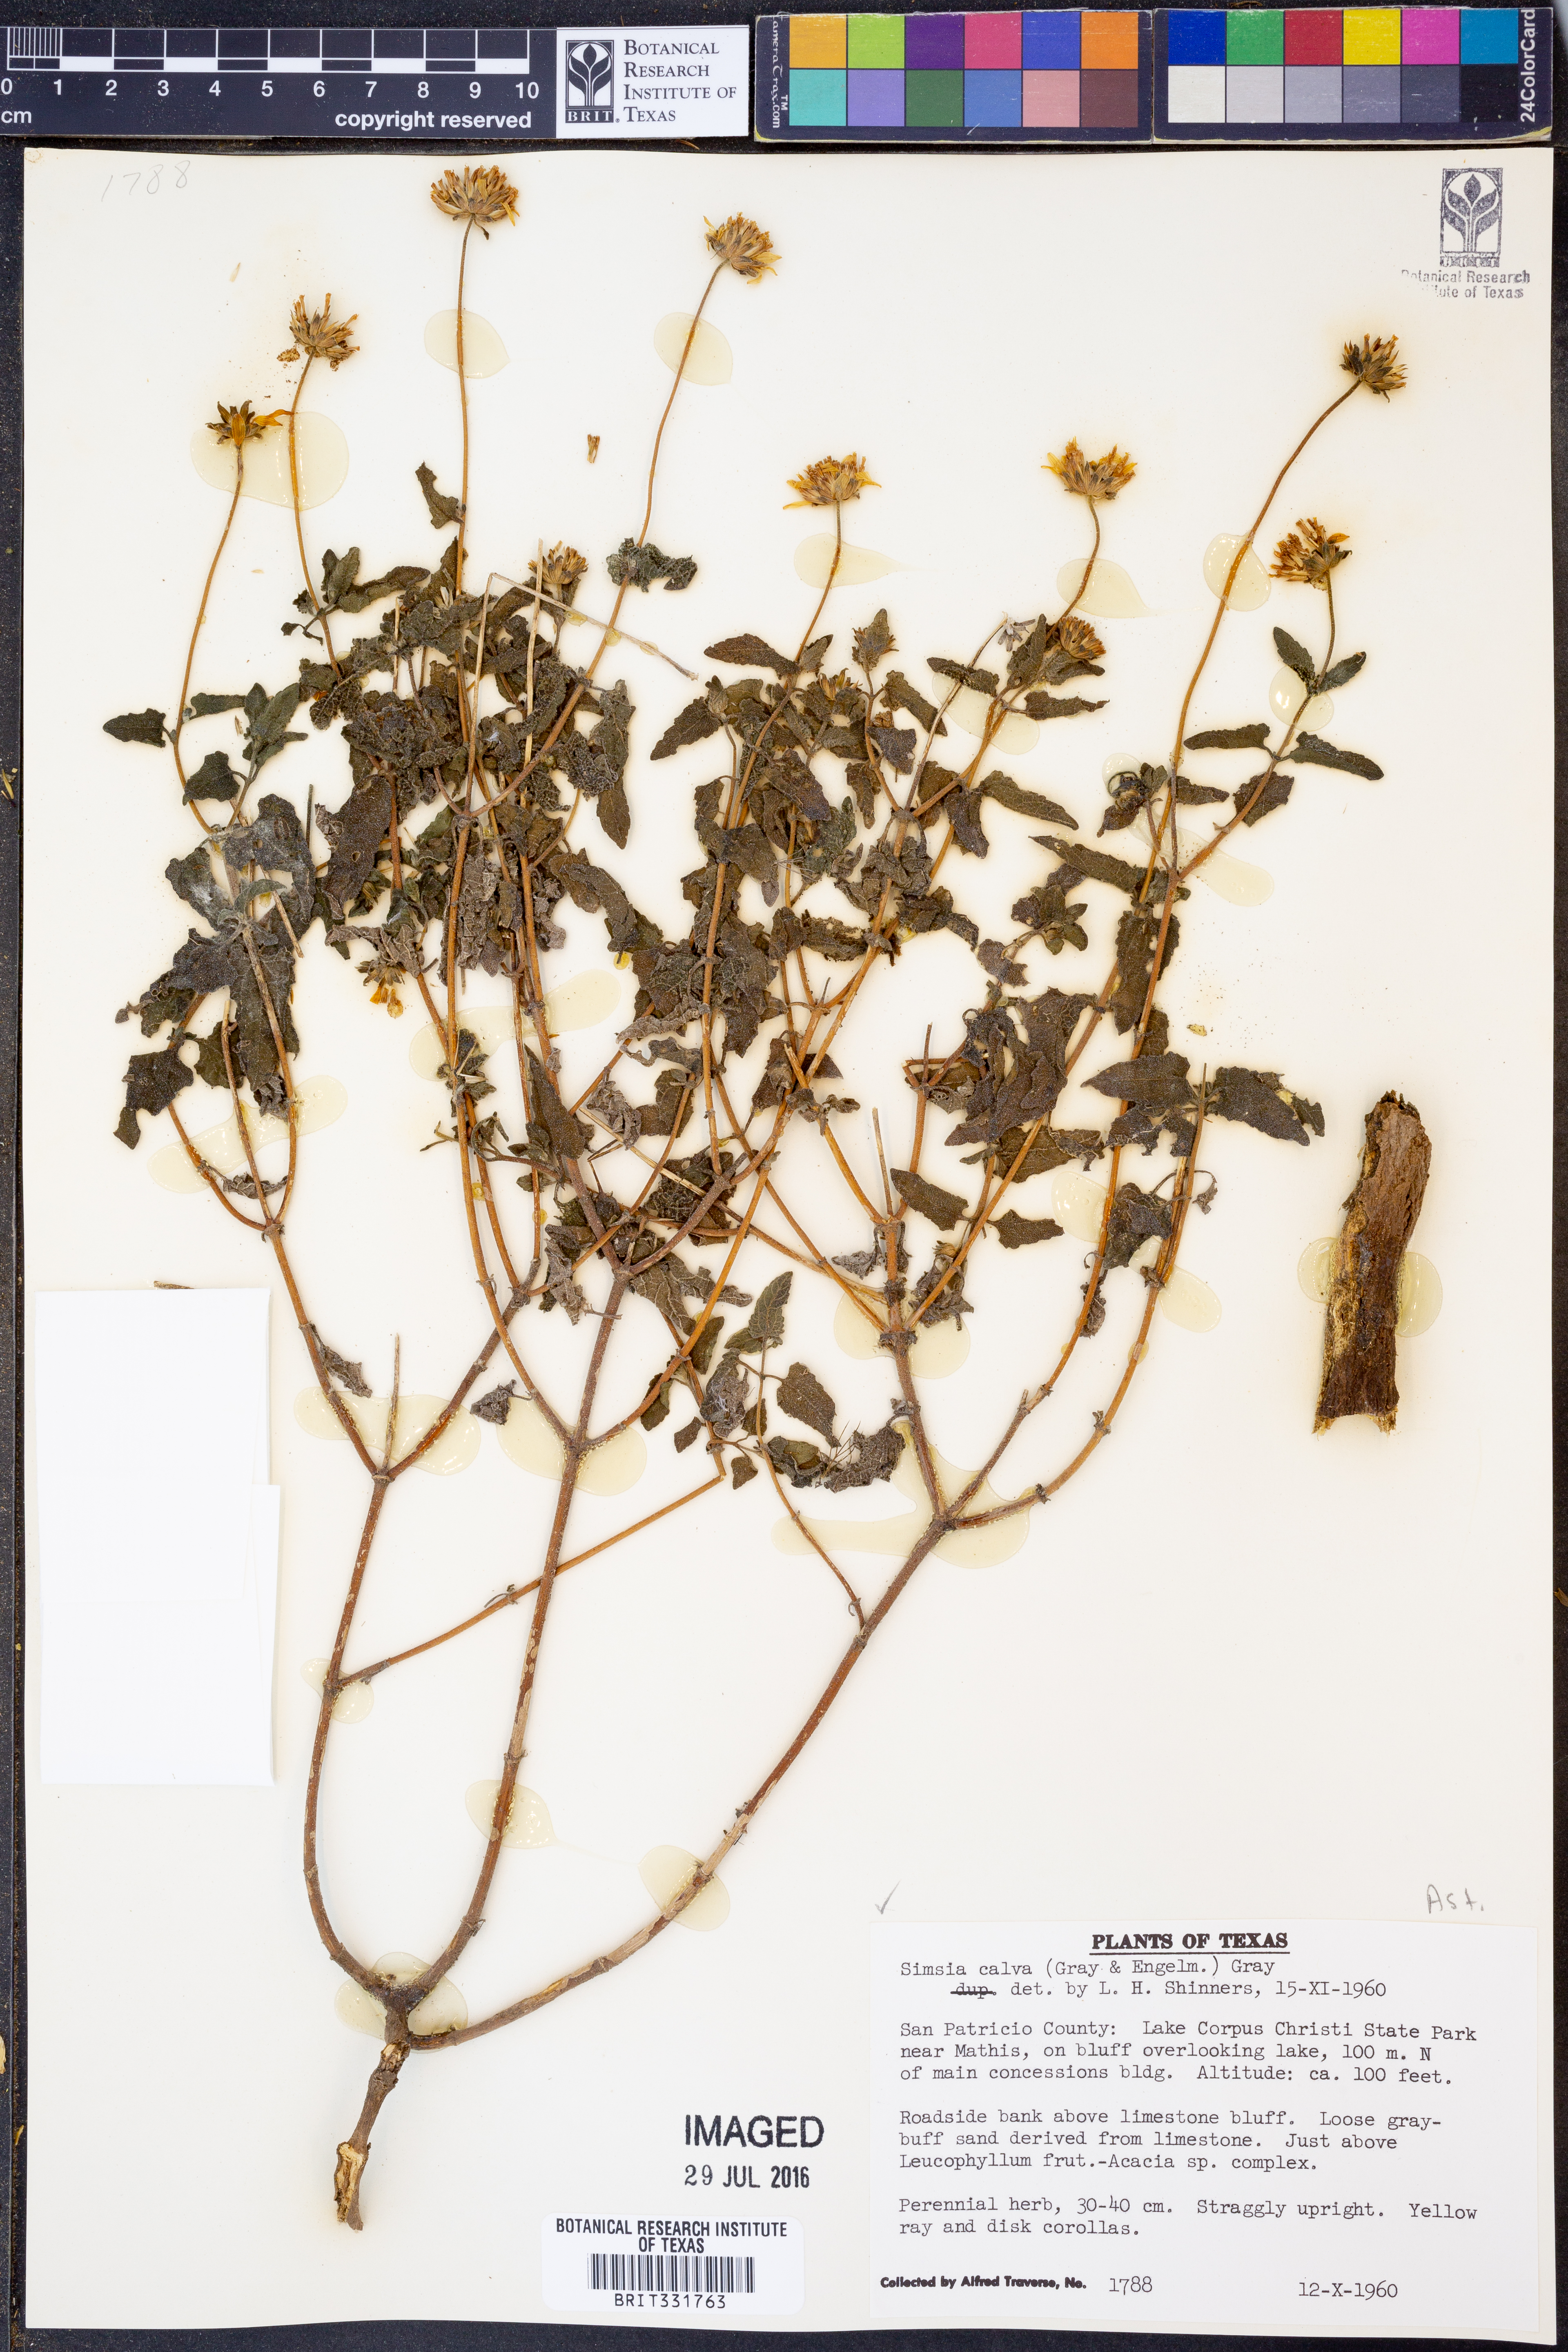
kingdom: Plantae
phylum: Tracheophyta
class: Magnoliopsida
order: Asterales
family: Asteraceae
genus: Simsia
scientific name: Simsia calva
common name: Awnless bush-sunflower
